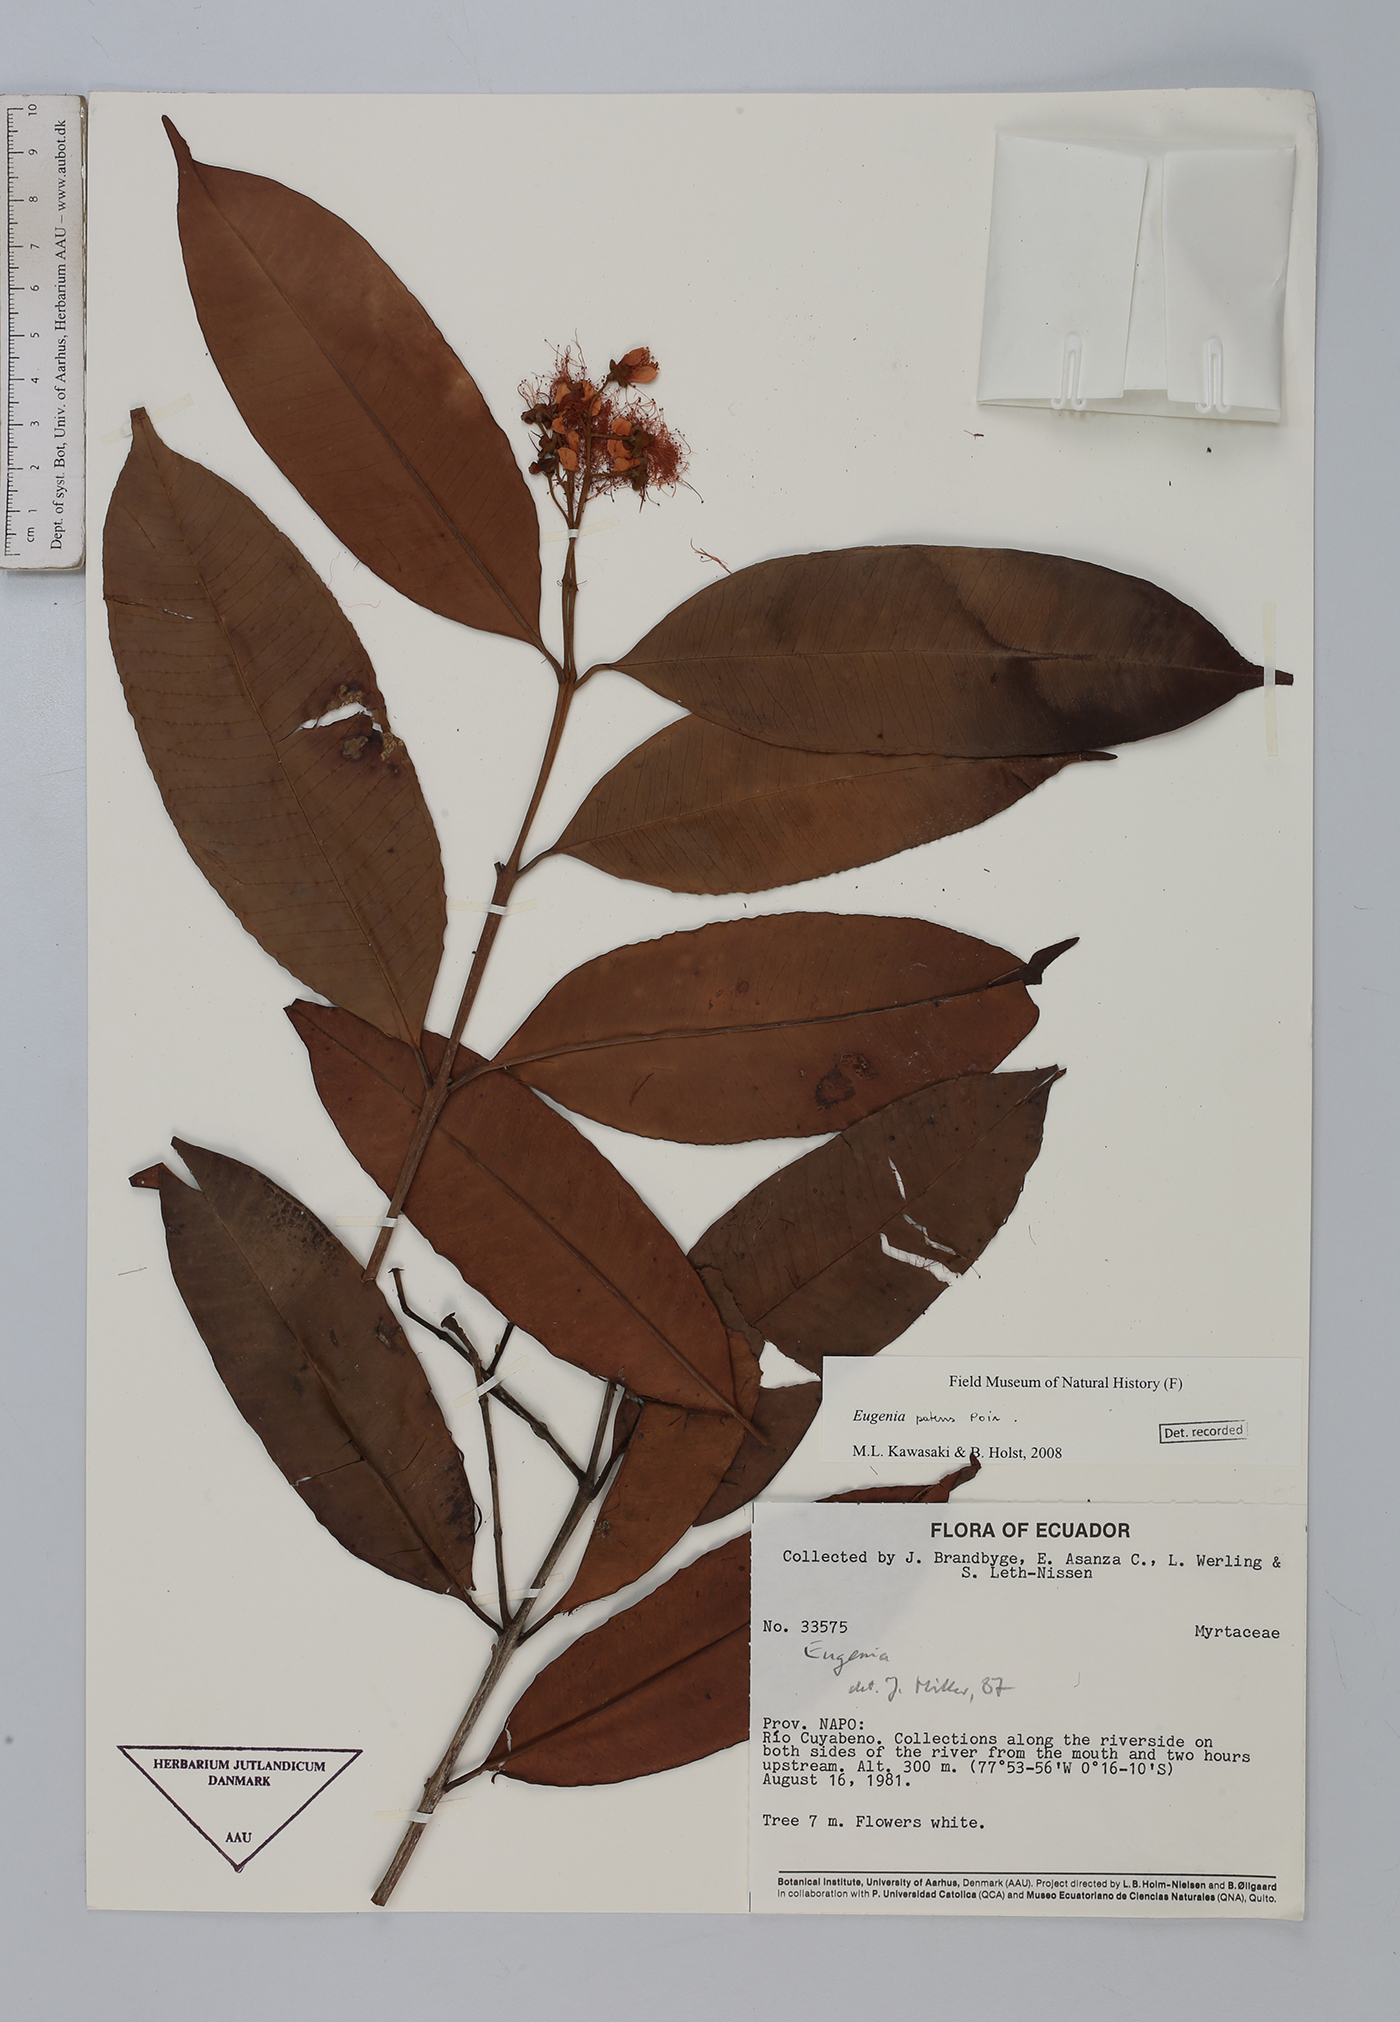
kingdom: Plantae
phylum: Tracheophyta
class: Magnoliopsida
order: Myrtales
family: Myrtaceae
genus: Eugenia
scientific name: Eugenia patens
